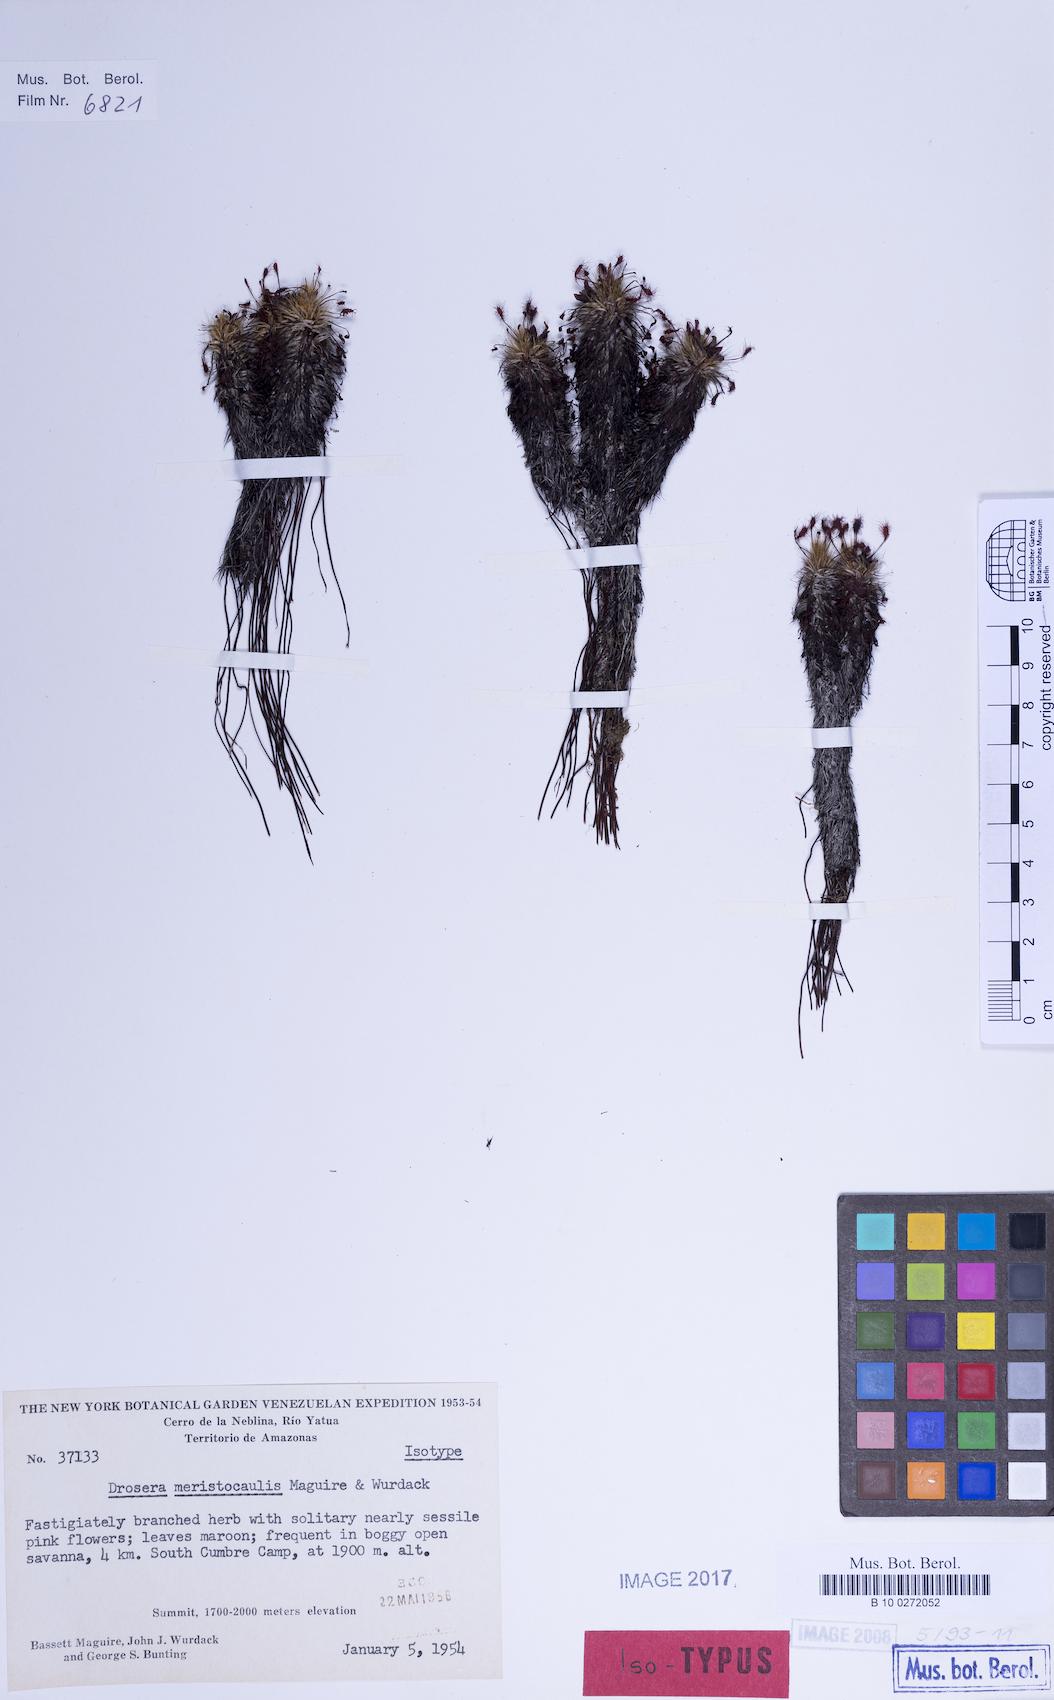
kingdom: Plantae
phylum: Tracheophyta
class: Magnoliopsida
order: Caryophyllales
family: Droseraceae
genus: Drosera
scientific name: Drosera meristocaulis
